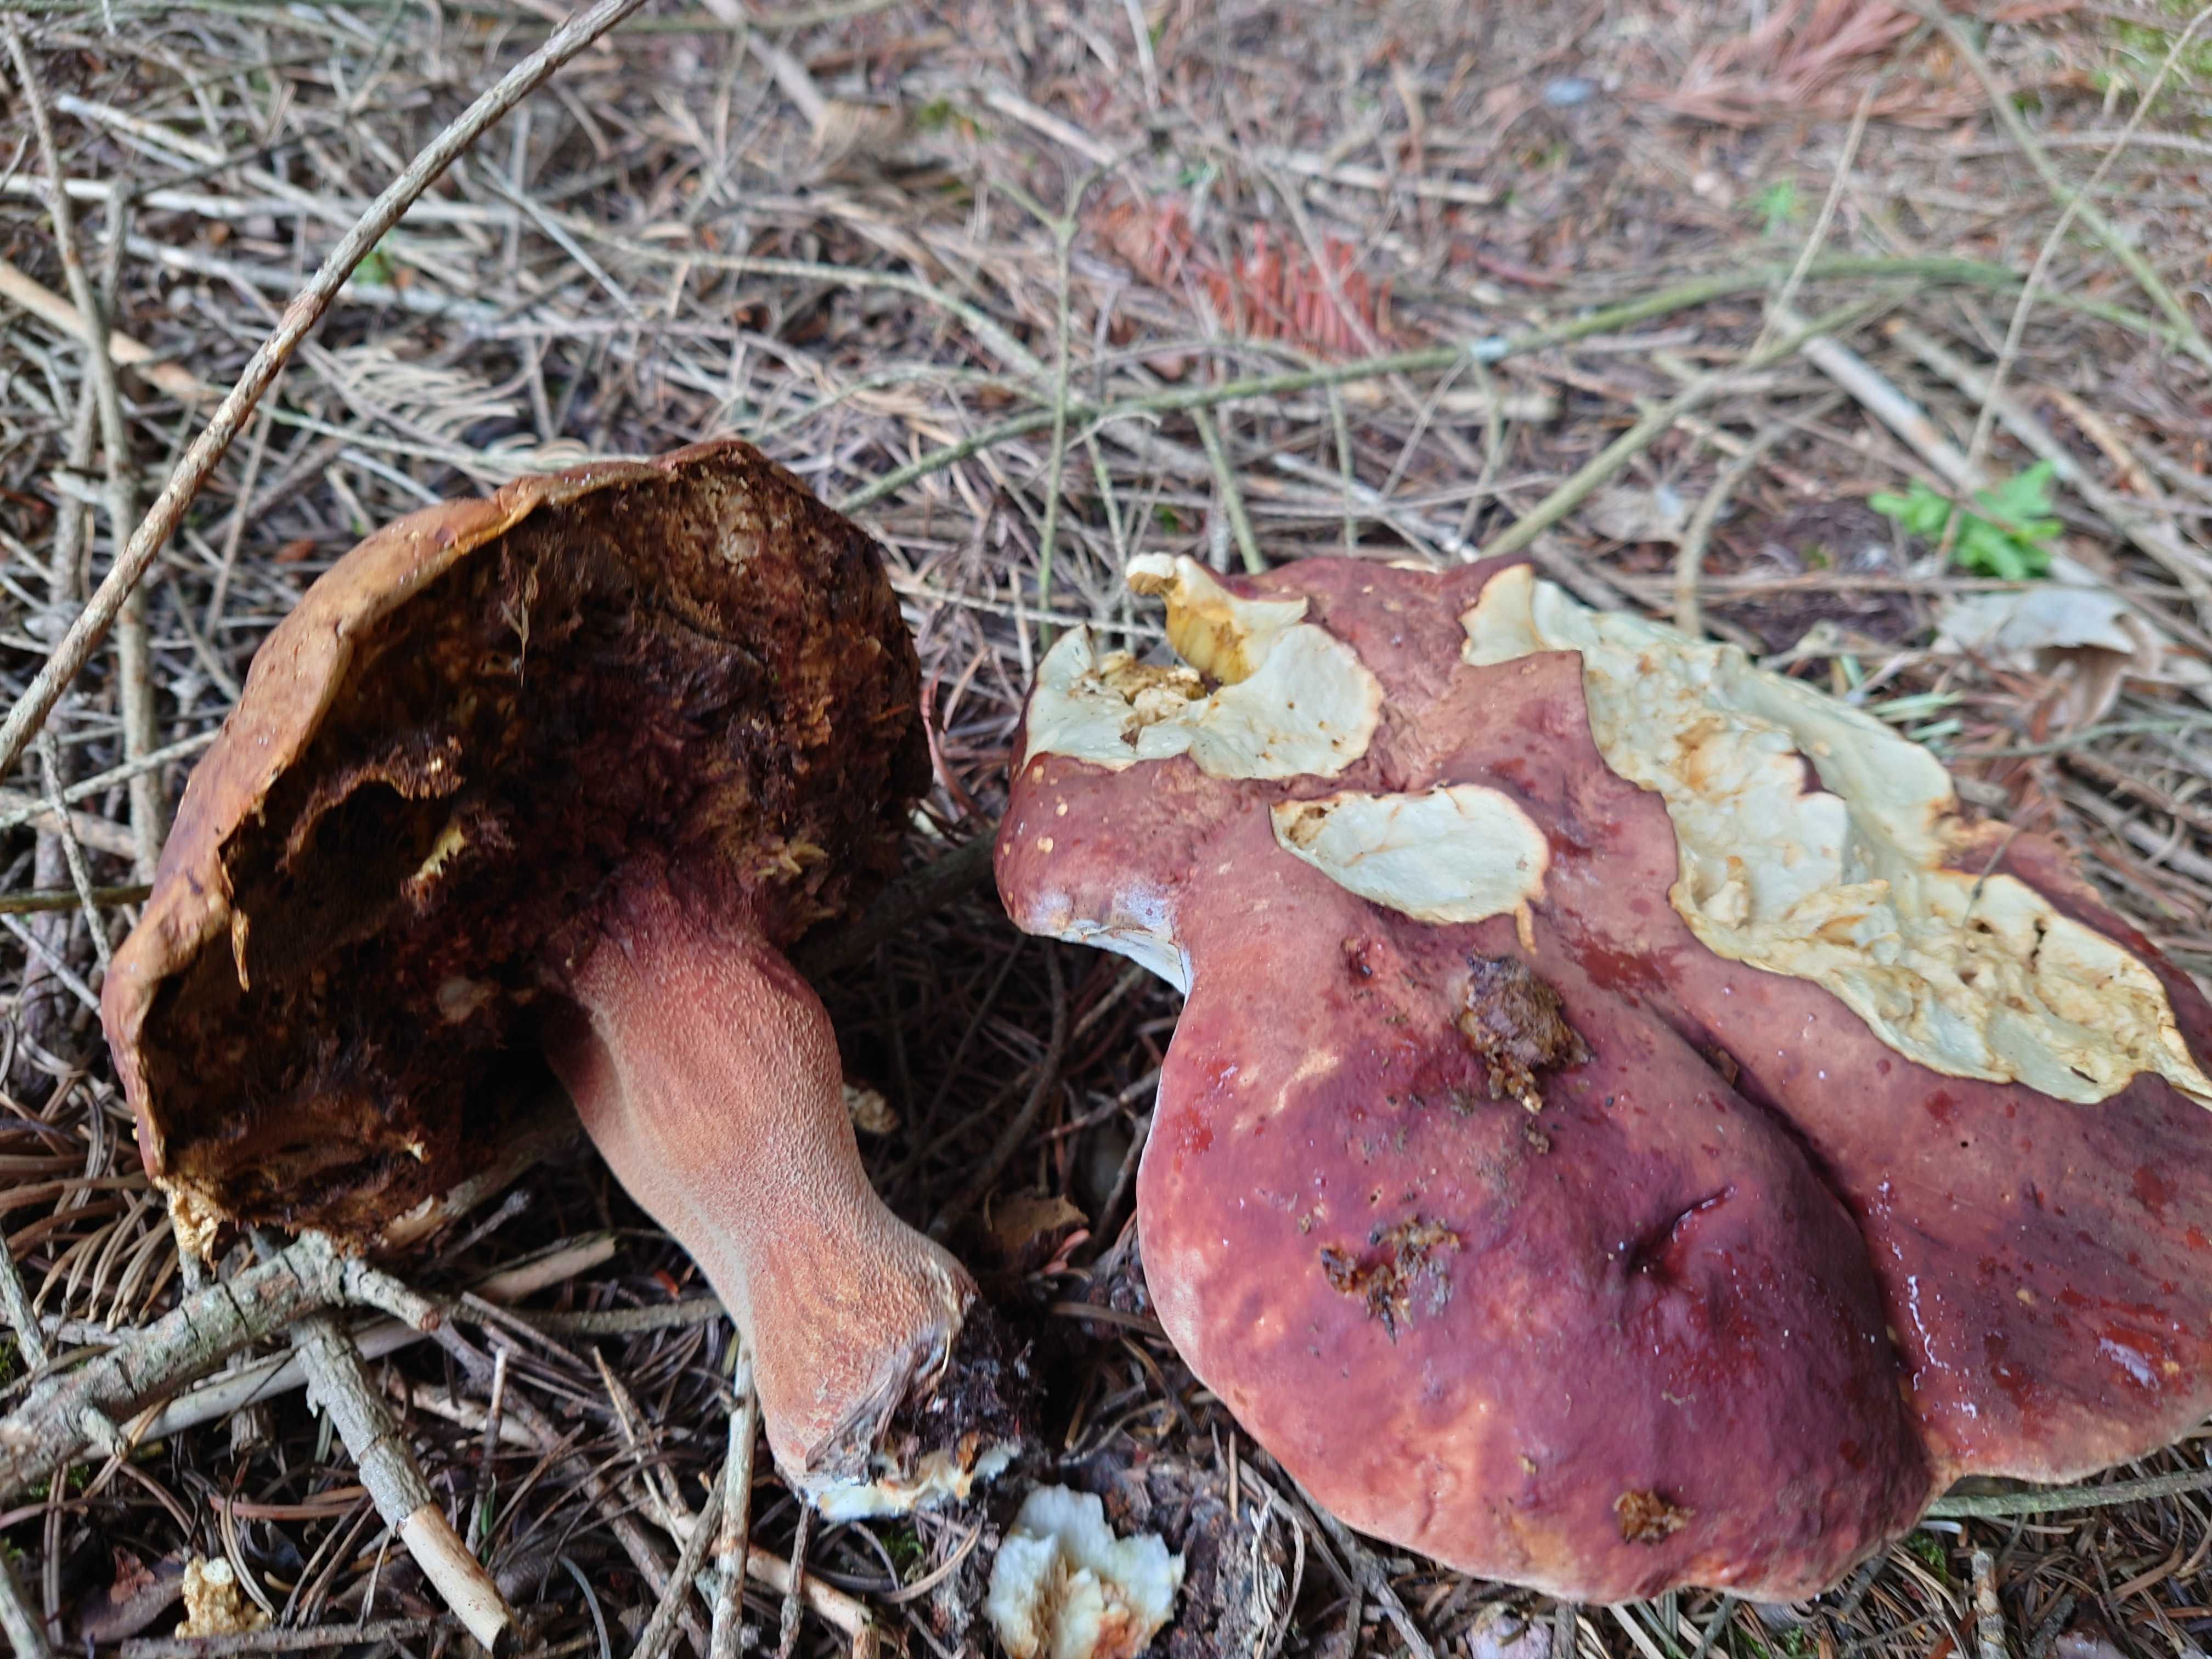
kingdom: Fungi
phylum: Basidiomycota
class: Agaricomycetes
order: Boletales
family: Boletaceae
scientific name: Boletaceae
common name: rørhatfamilien
